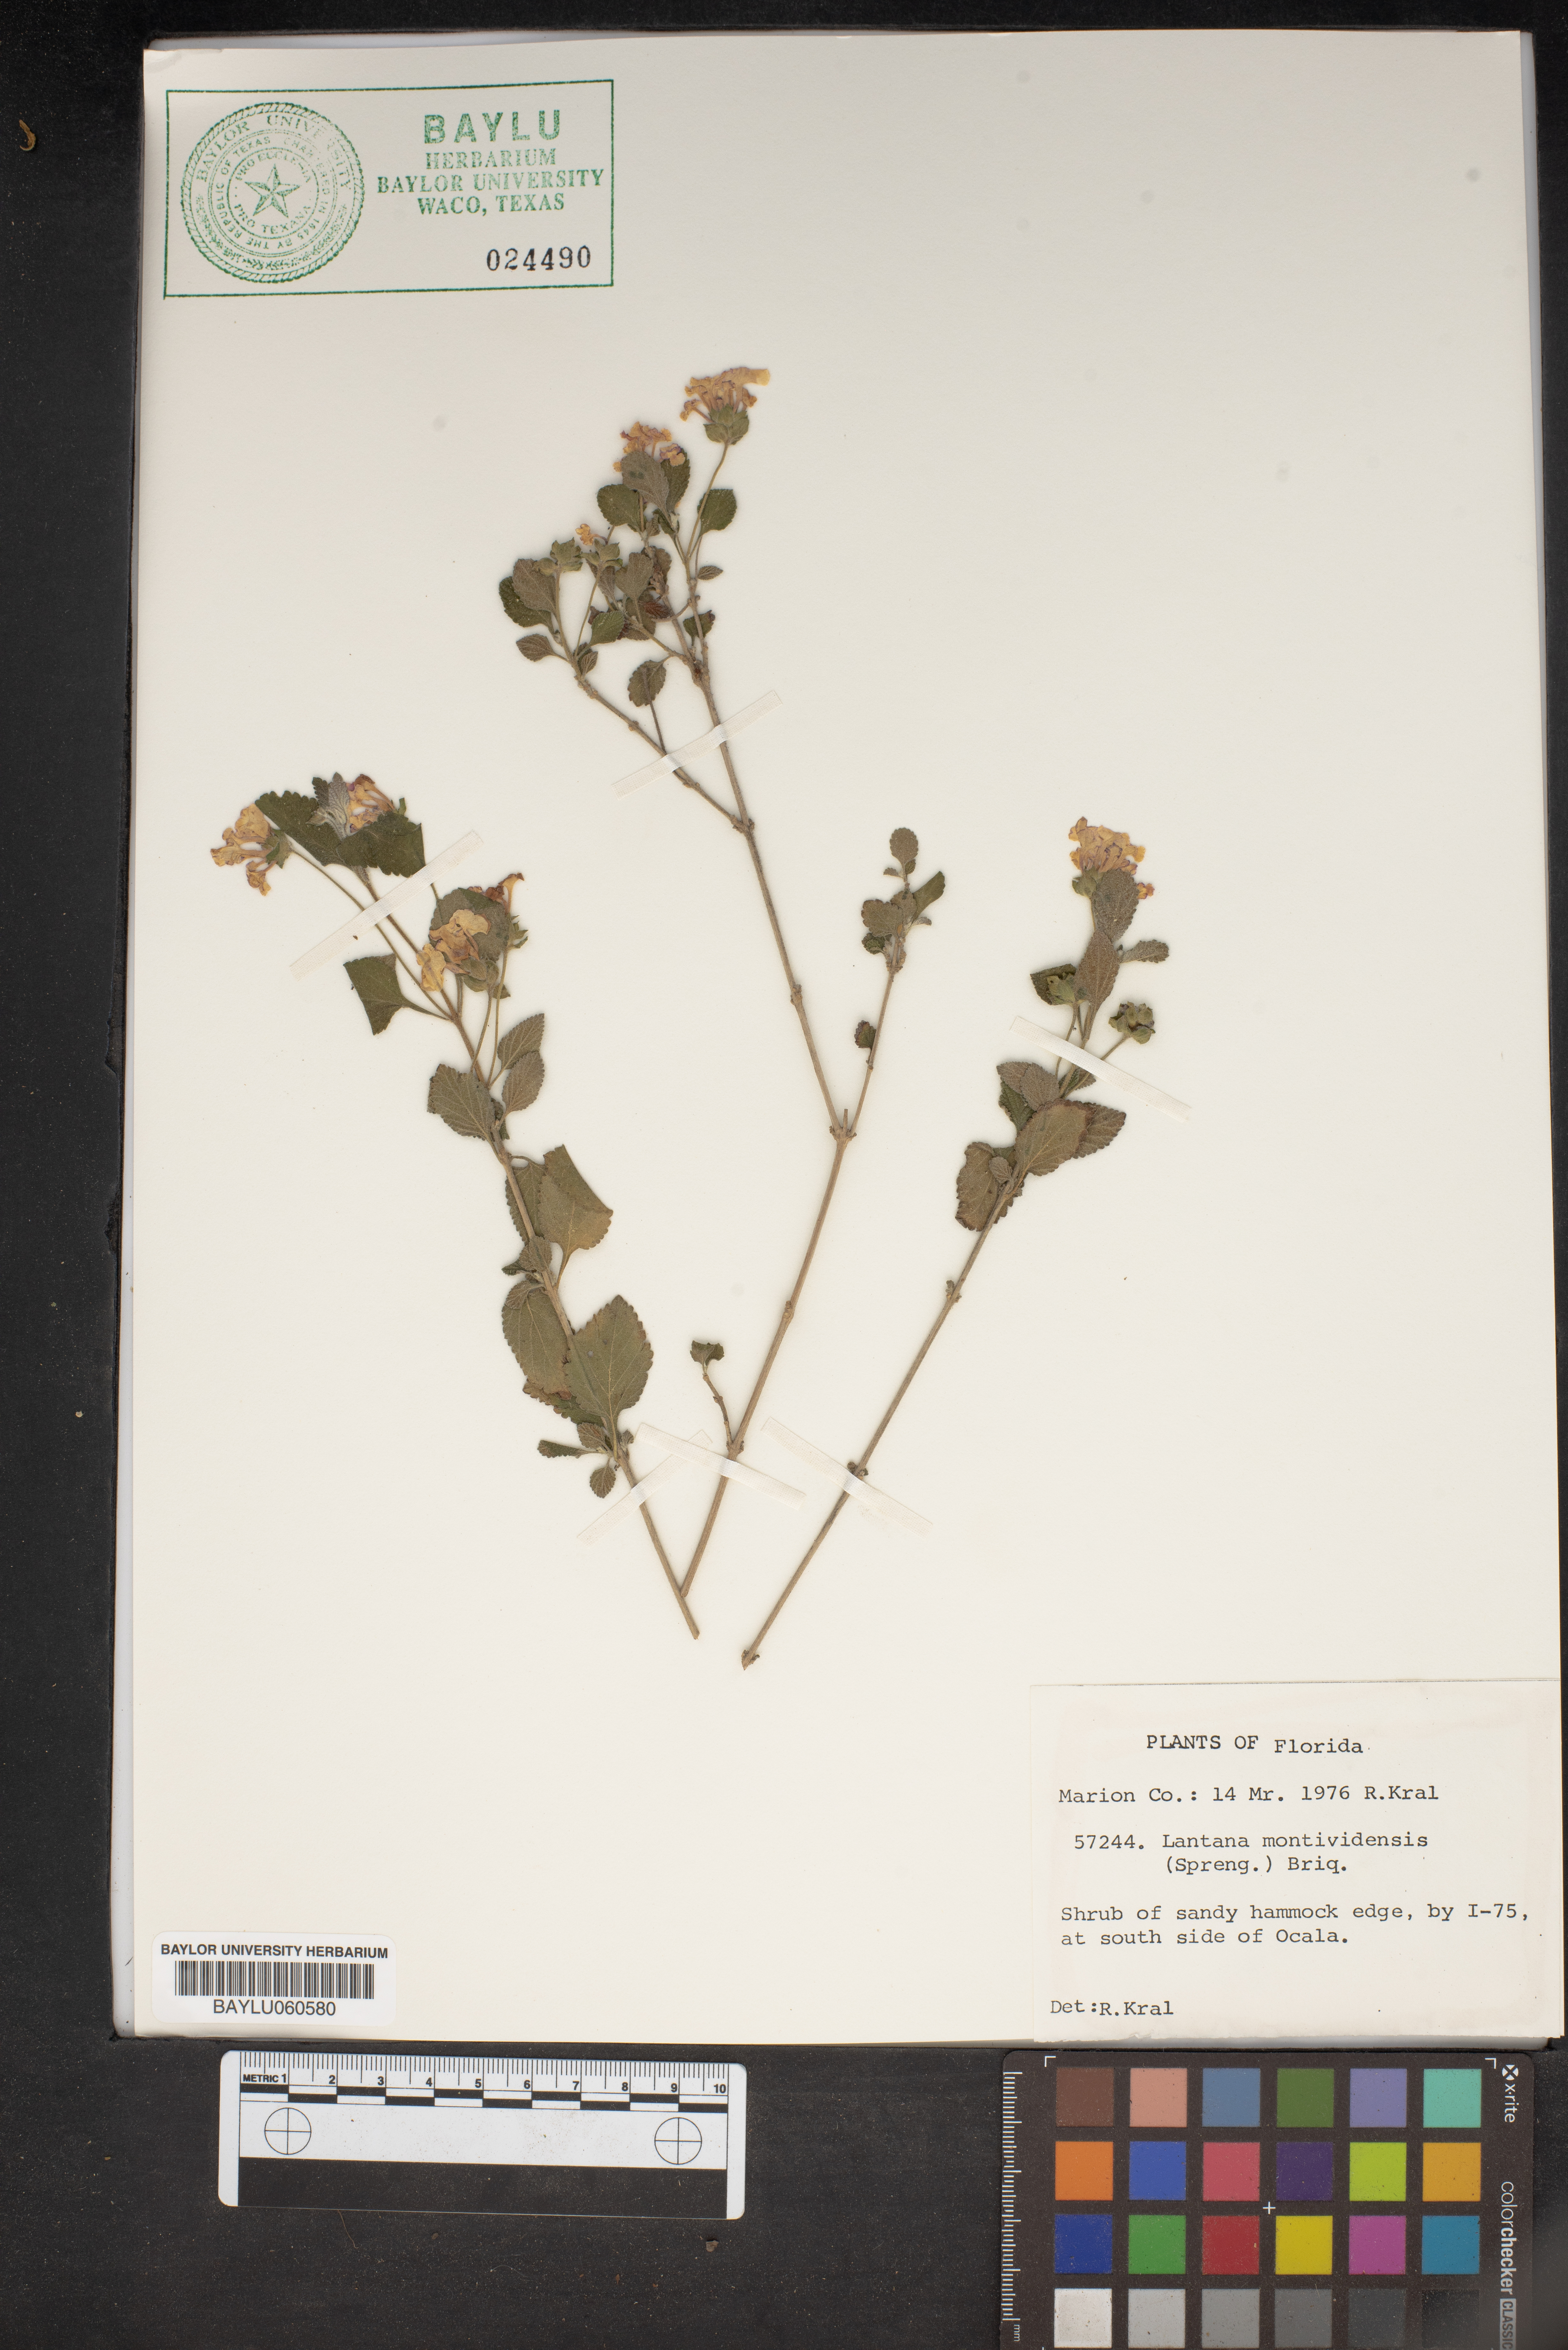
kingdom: Plantae
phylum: Tracheophyta
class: Magnoliopsida
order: Lamiales
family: Verbenaceae
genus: Lantana
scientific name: Lantana montevidensis
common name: Trailing shrubverbena
